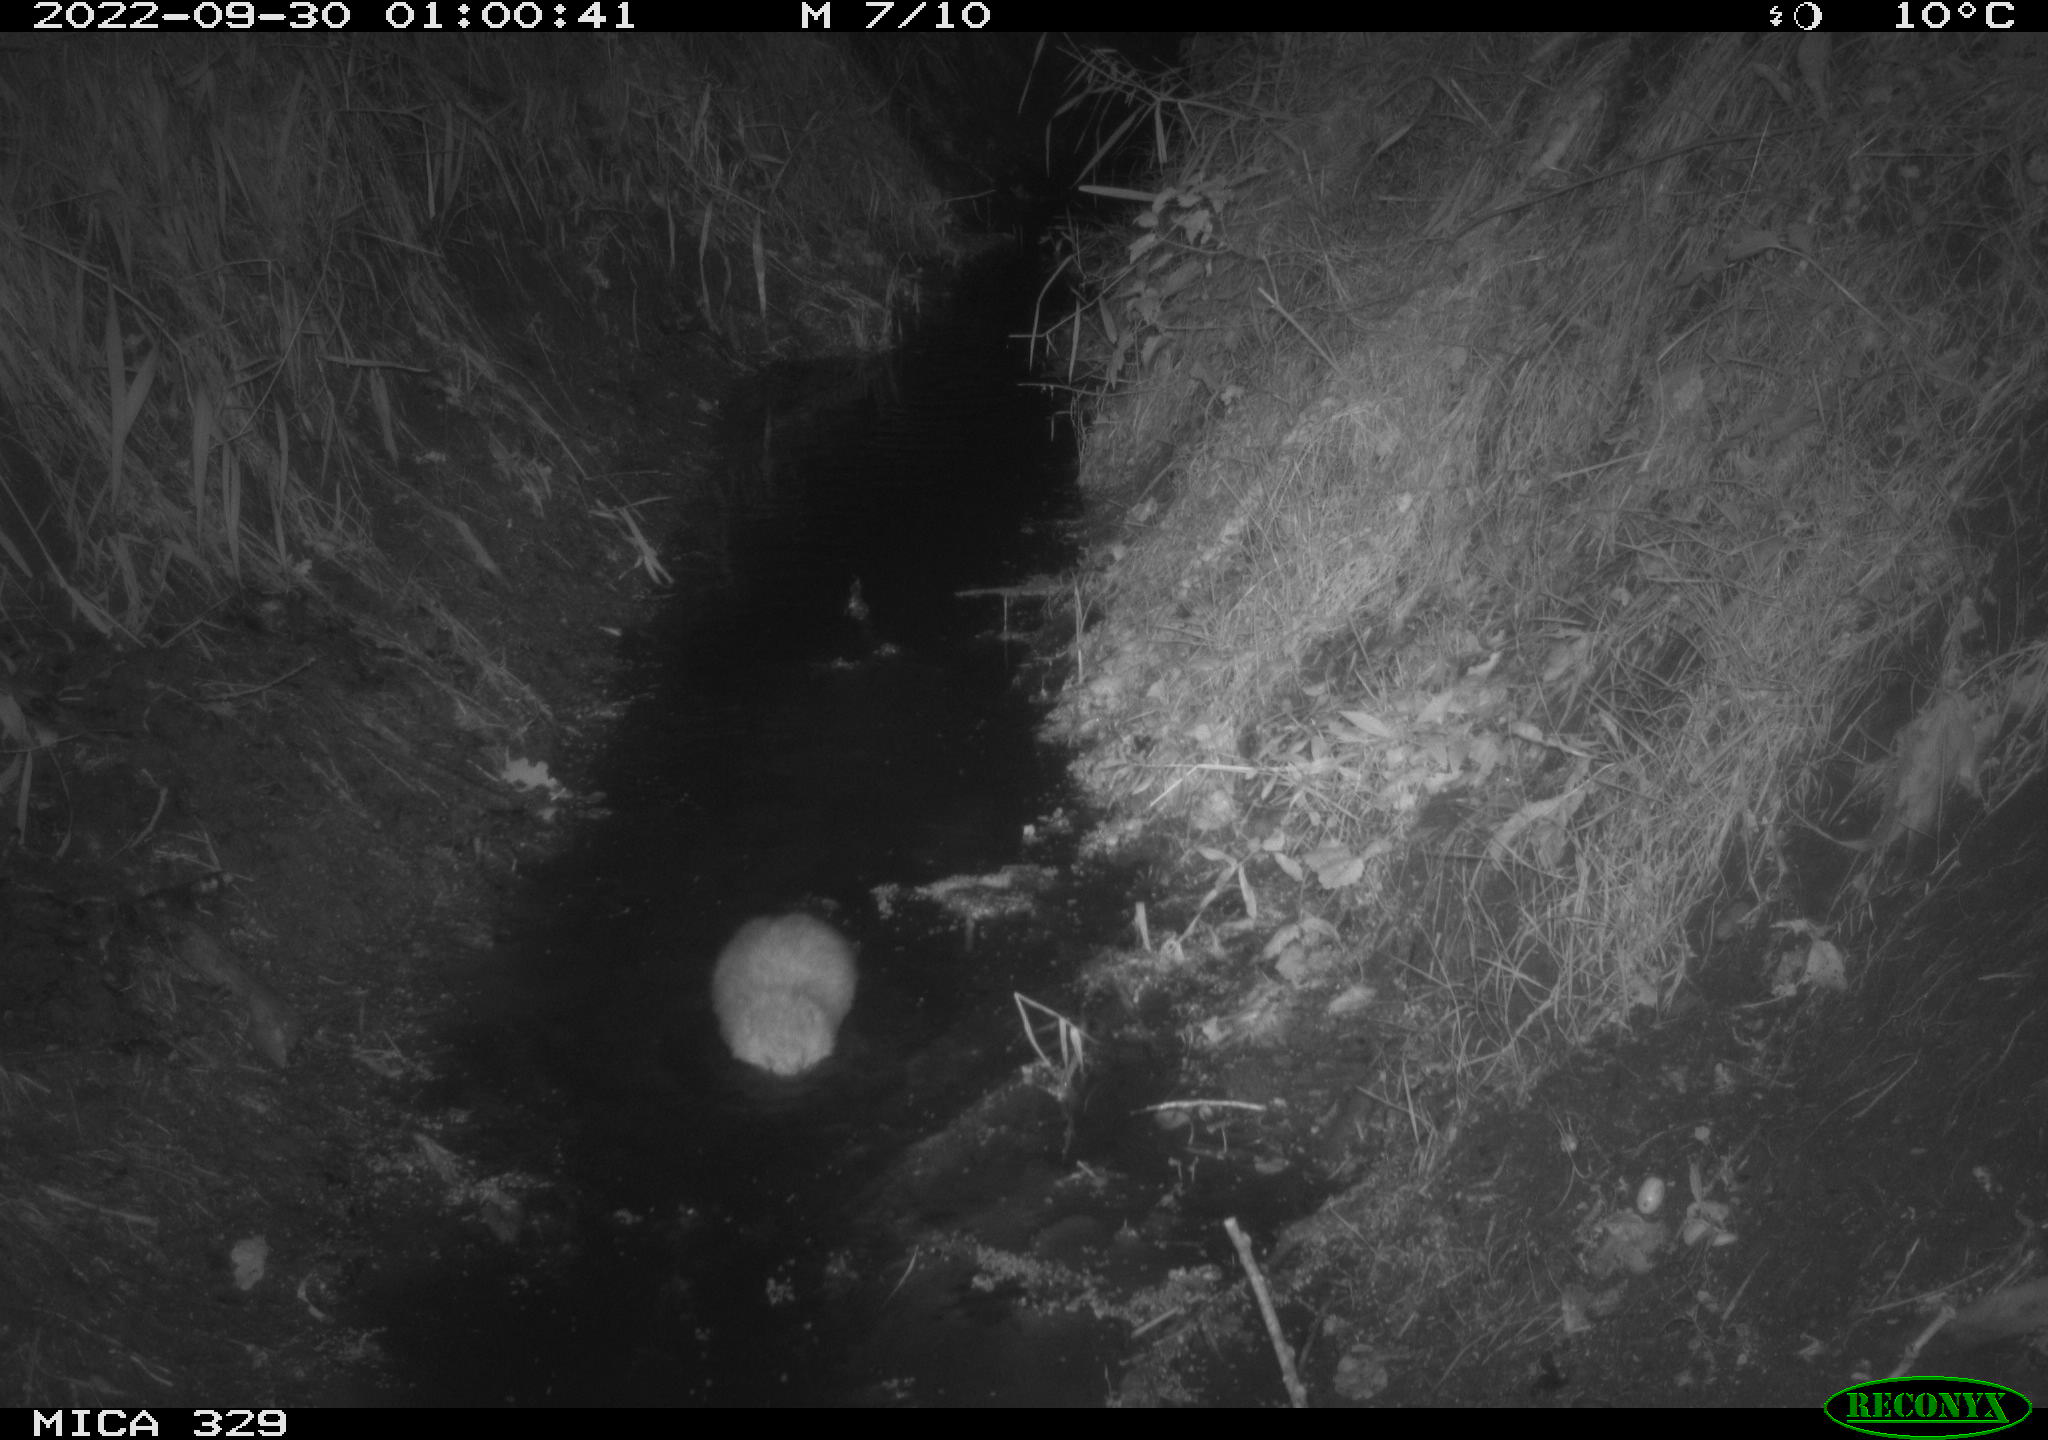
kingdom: Animalia
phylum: Chordata
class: Mammalia
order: Rodentia
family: Cricetidae
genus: Ondatra
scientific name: Ondatra zibethicus
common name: Muskrat
